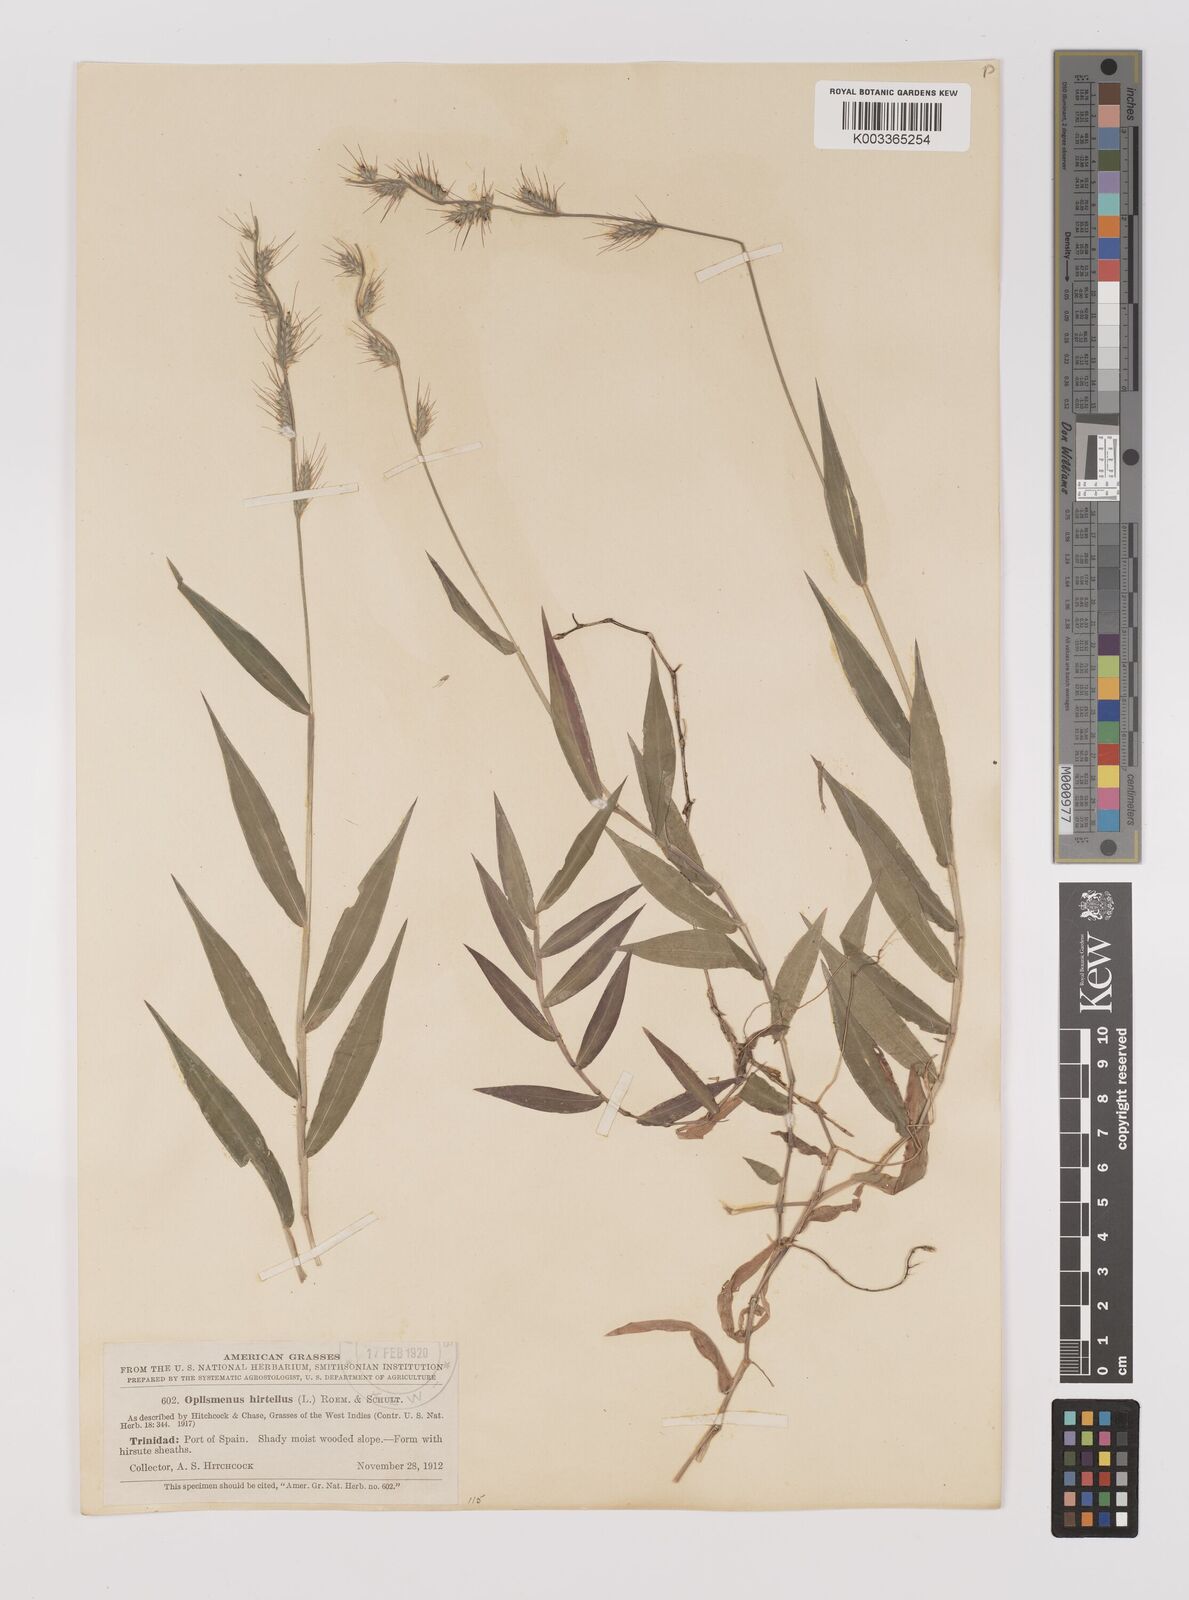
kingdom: Plantae
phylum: Tracheophyta
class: Liliopsida
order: Poales
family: Poaceae
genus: Oplismenus
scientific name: Oplismenus hirtellus
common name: Basketgrass
